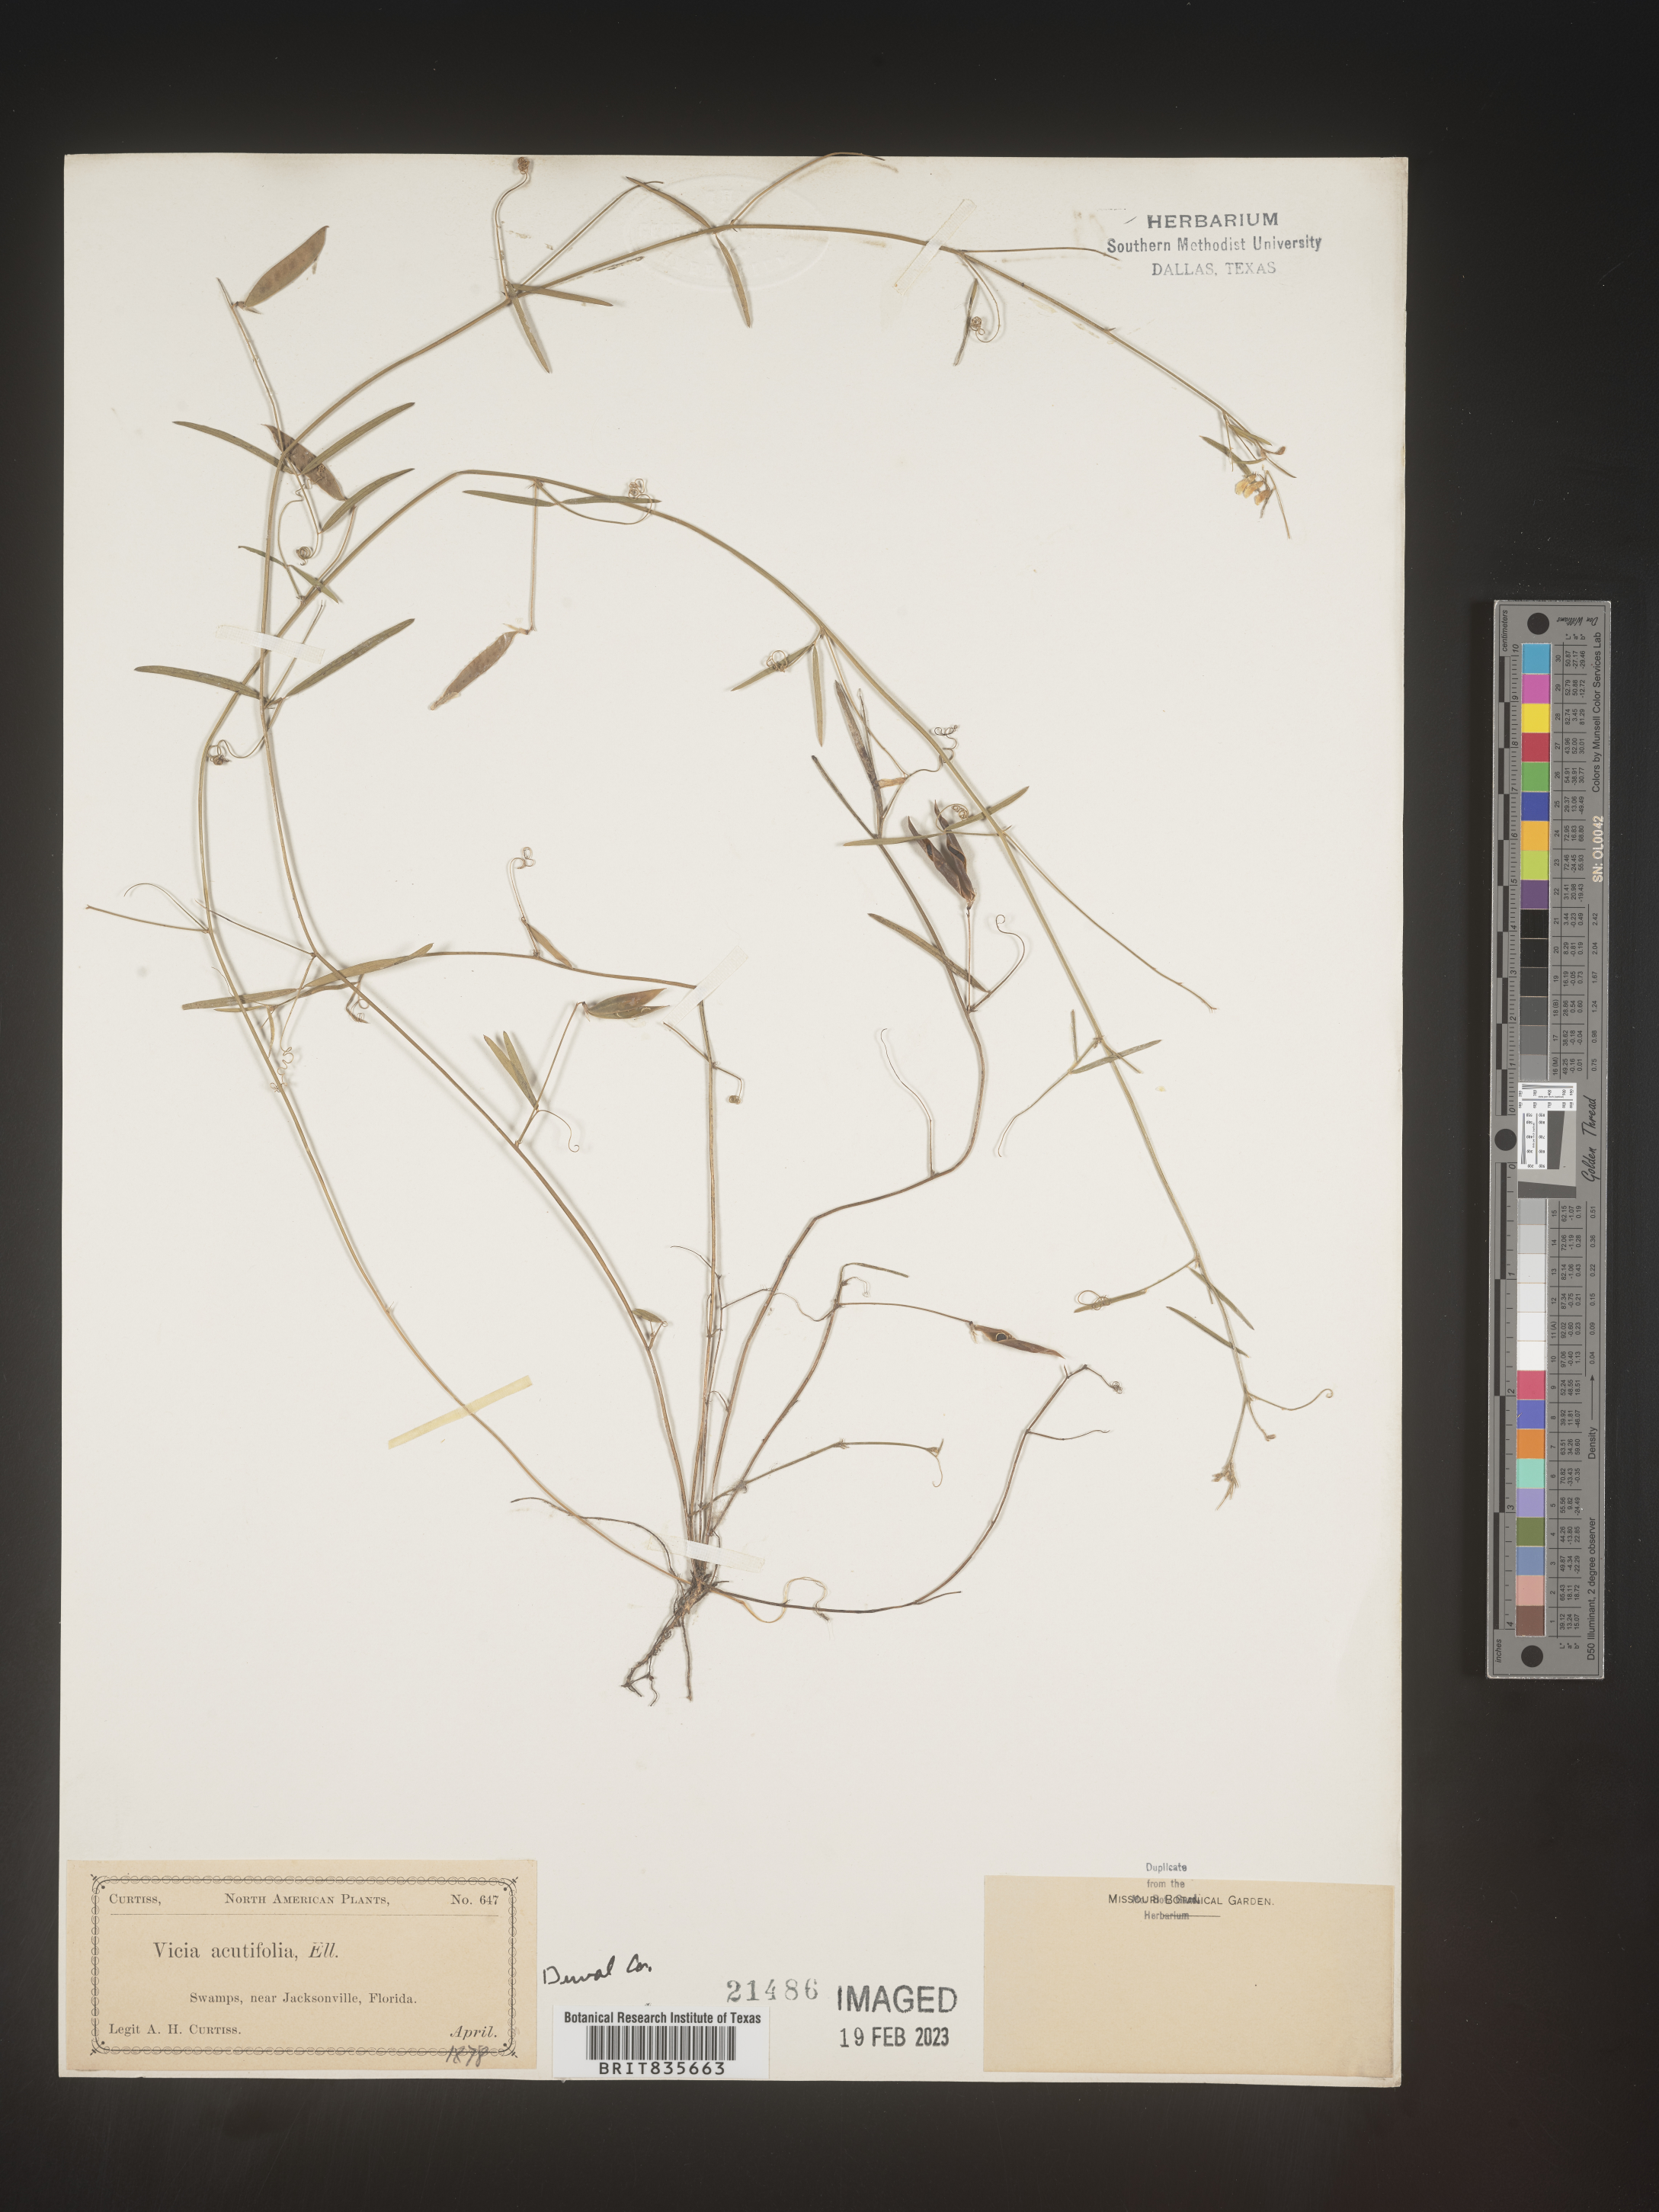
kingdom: Plantae
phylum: Tracheophyta
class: Magnoliopsida
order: Fabales
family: Fabaceae
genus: Vicia
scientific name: Vicia acutifolia
